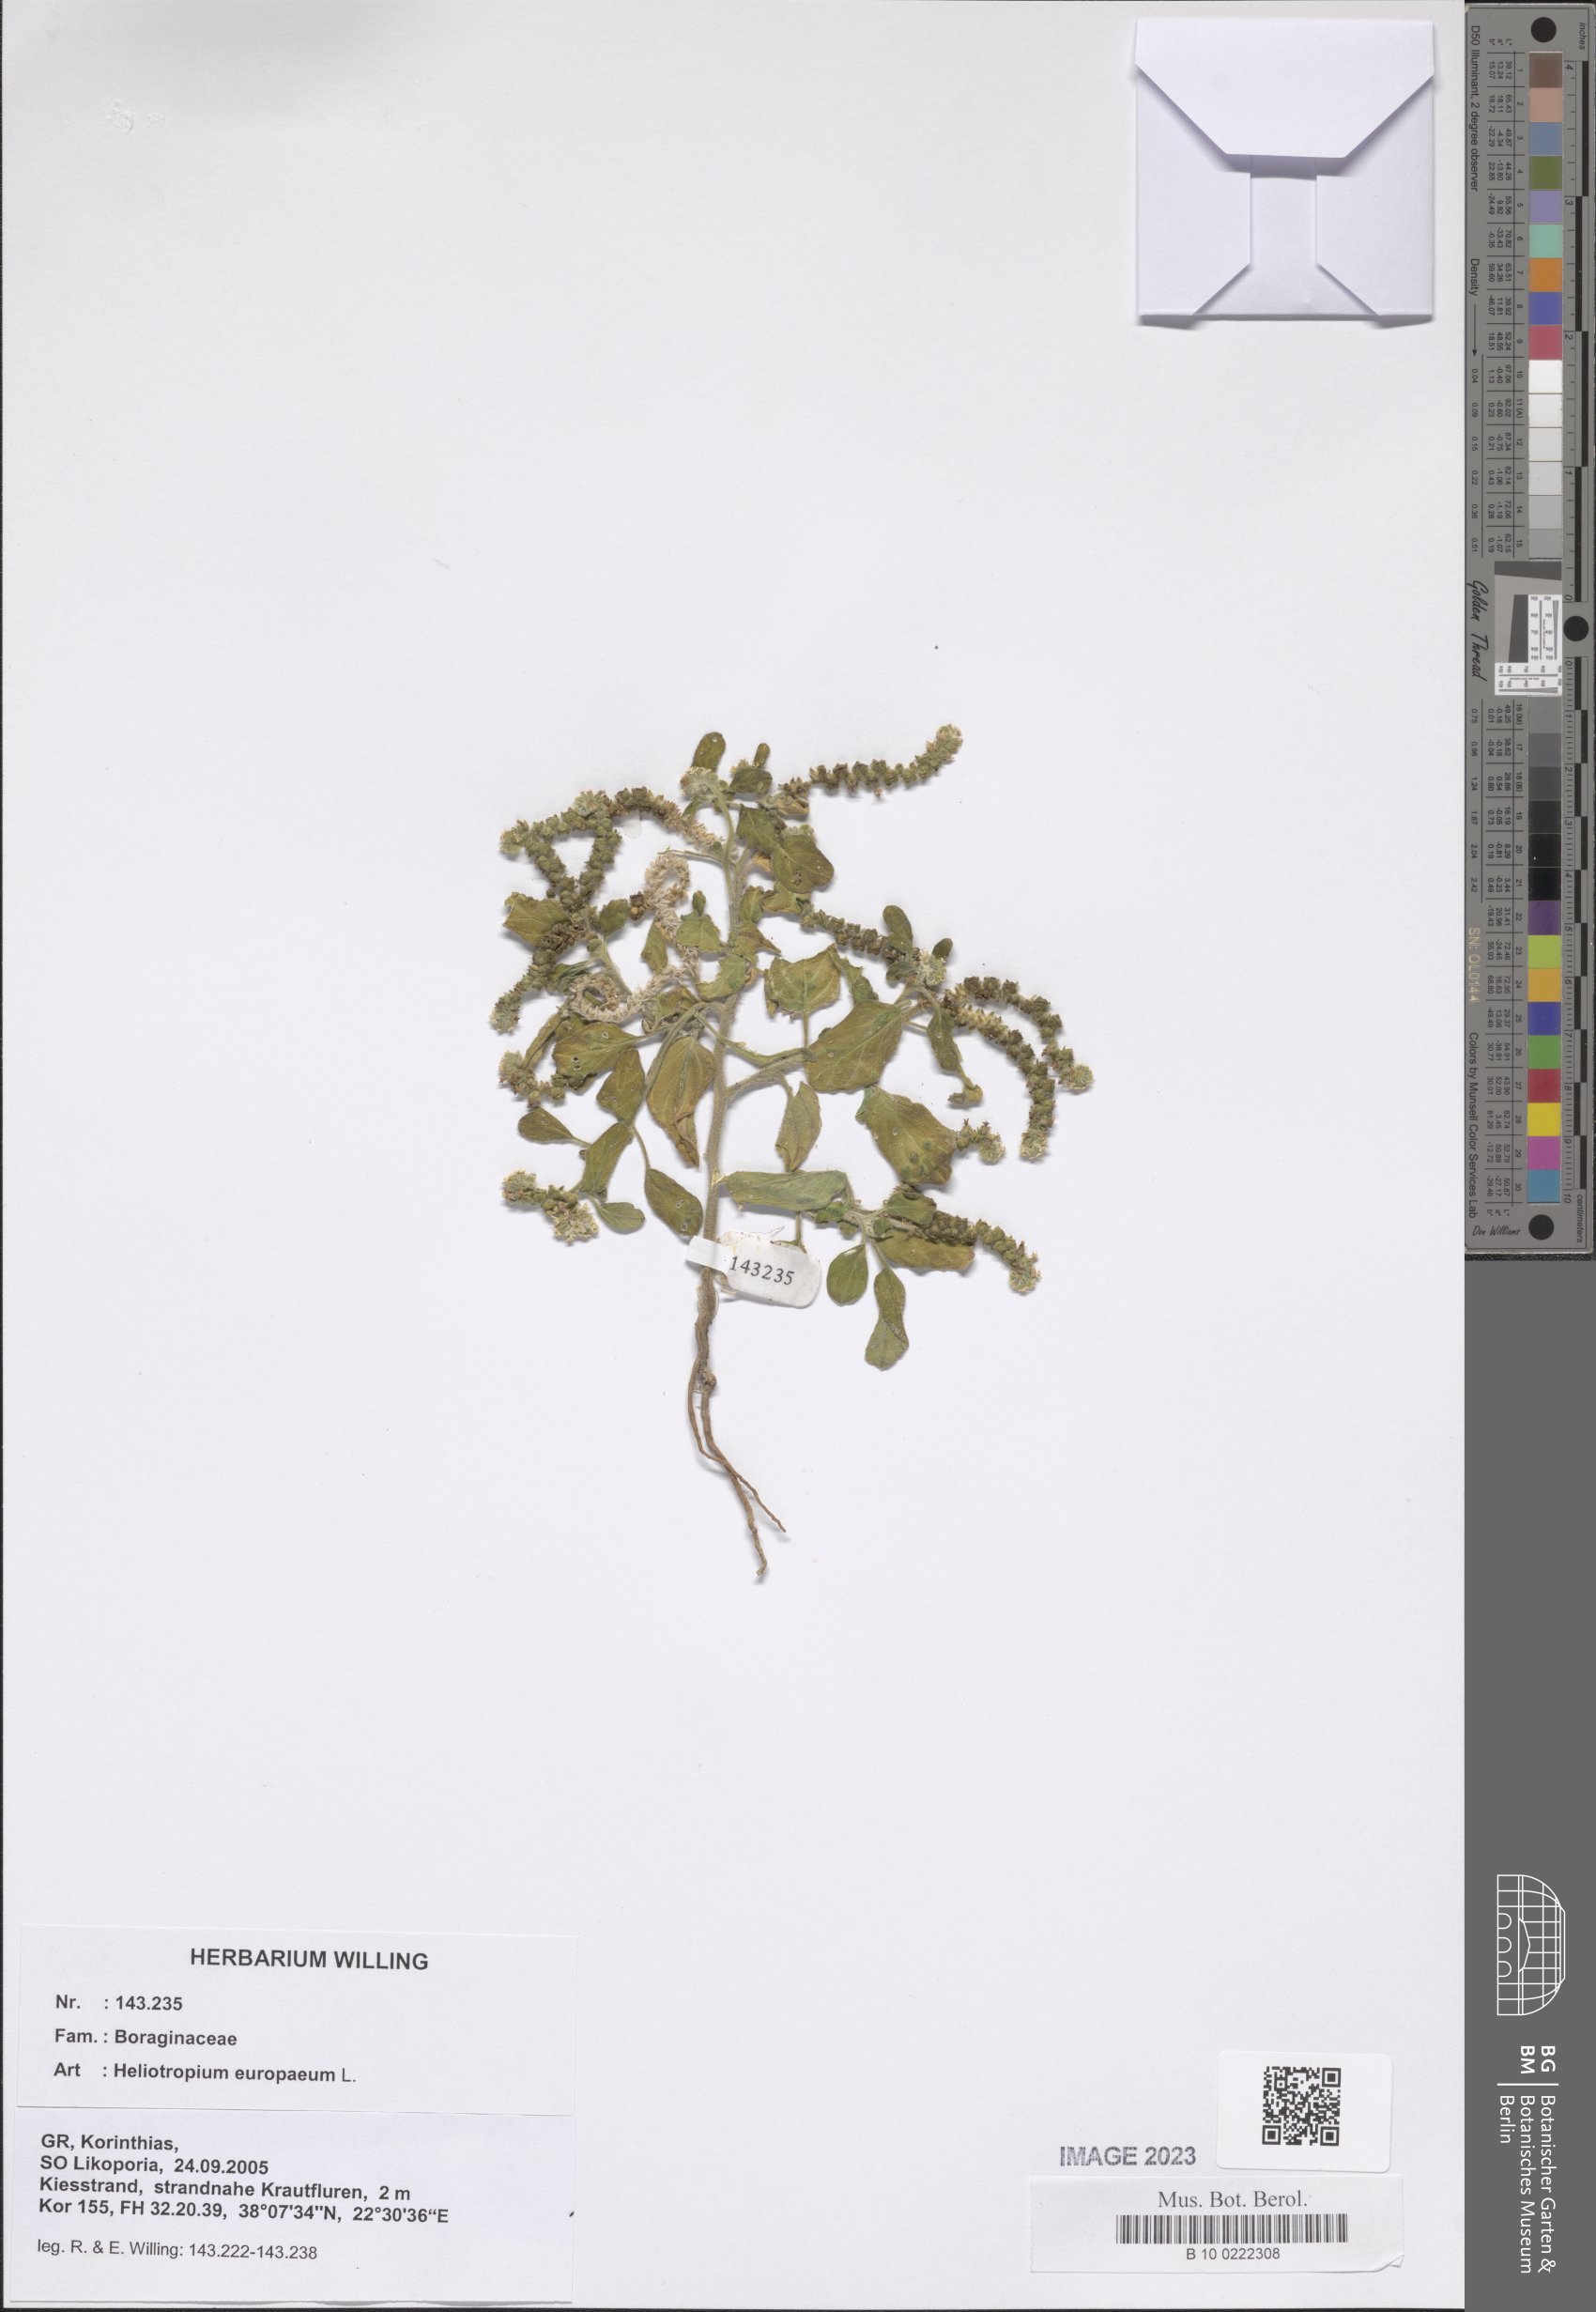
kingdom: Plantae
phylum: Tracheophyta
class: Magnoliopsida
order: Boraginales
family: Heliotropiaceae
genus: Heliotropium
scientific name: Heliotropium europaeum
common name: European heliotrope
